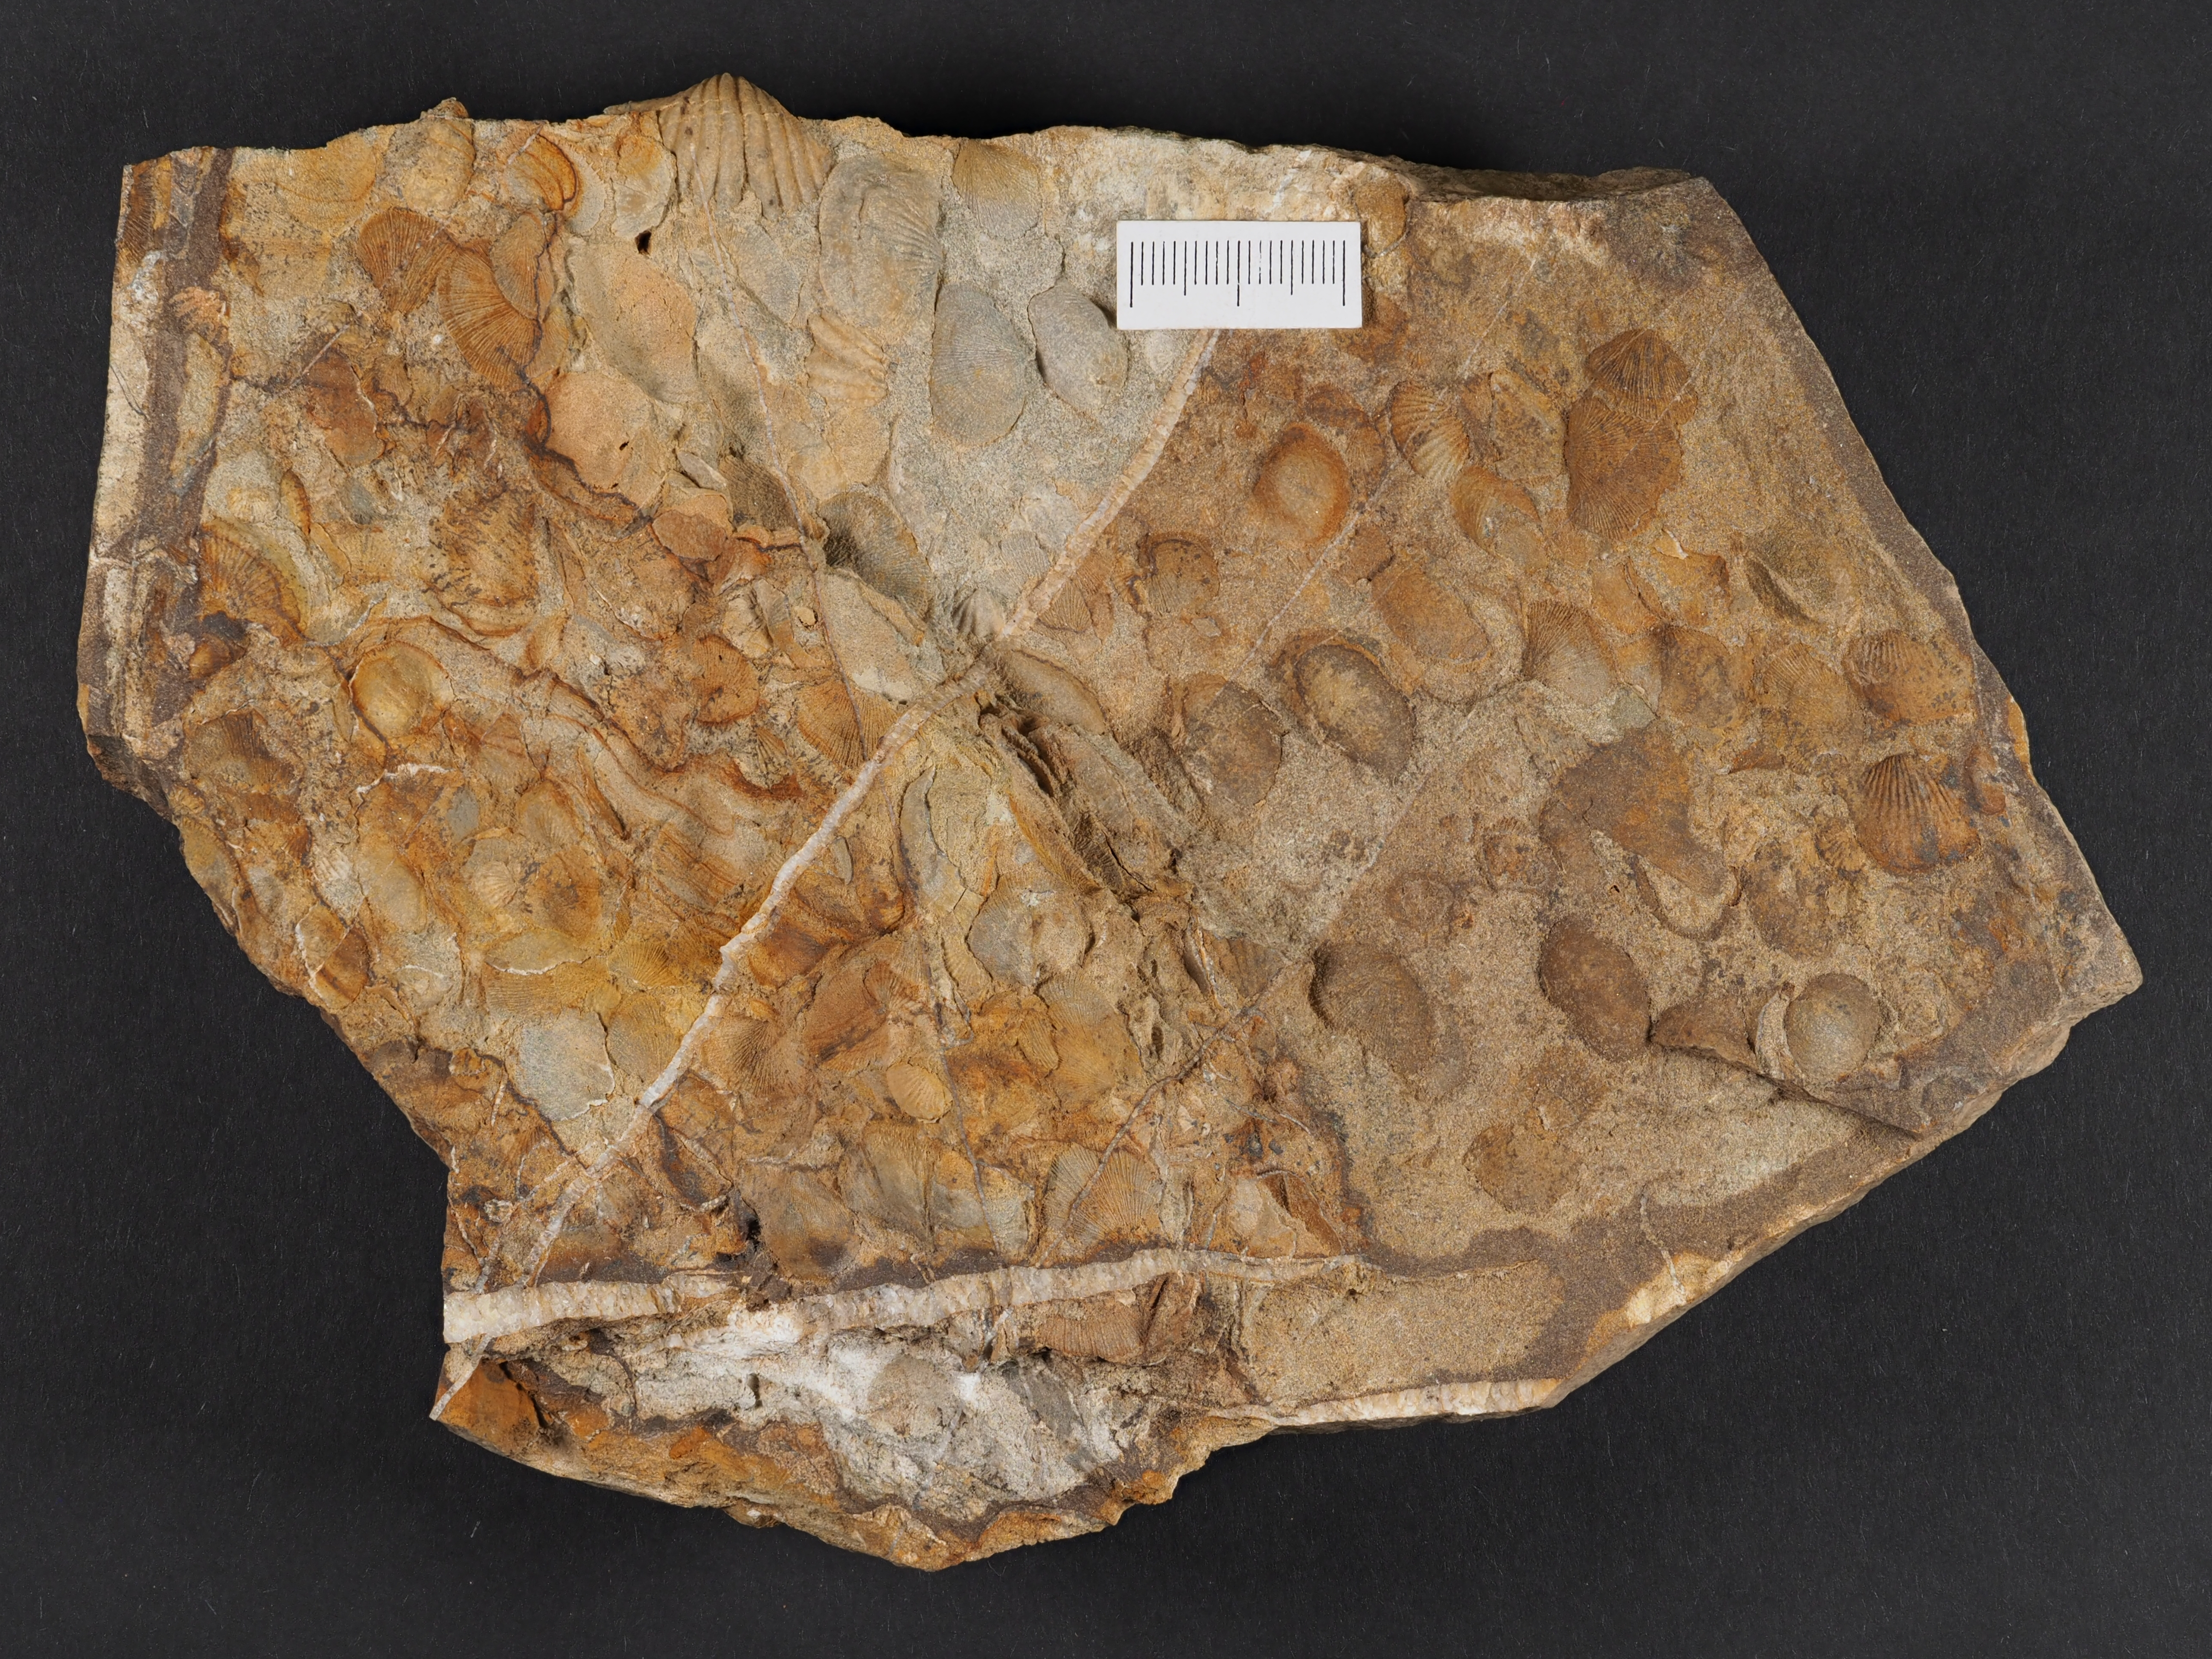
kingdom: Animalia
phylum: Brachiopoda
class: Rhynchonellata
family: Rhipidomellidae
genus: Platyorthis
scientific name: Platyorthis
